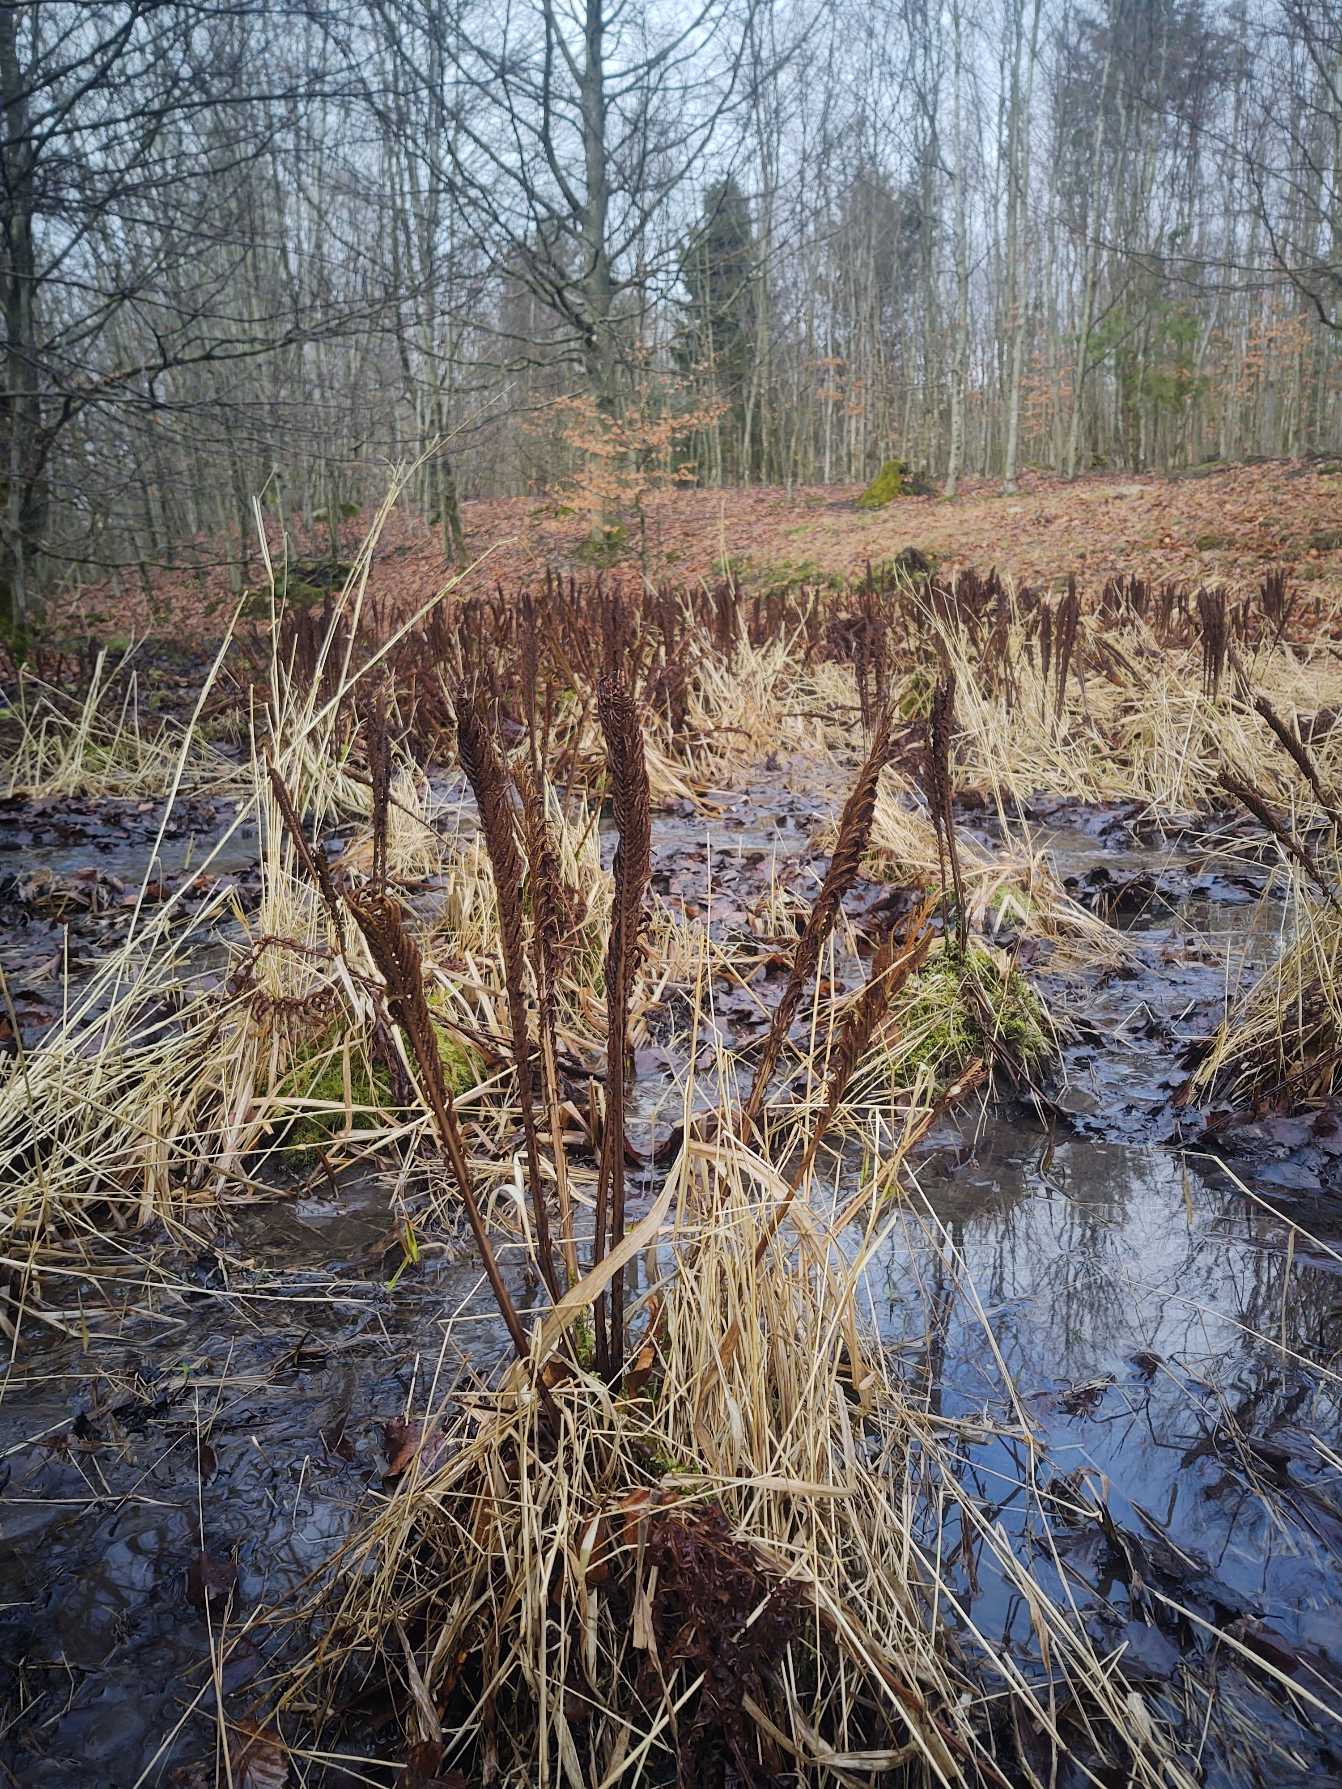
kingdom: Plantae
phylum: Tracheophyta
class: Polypodiopsida
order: Polypodiales
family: Onocleaceae
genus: Matteuccia
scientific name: Matteuccia struthiopteris
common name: Strudsvinge
